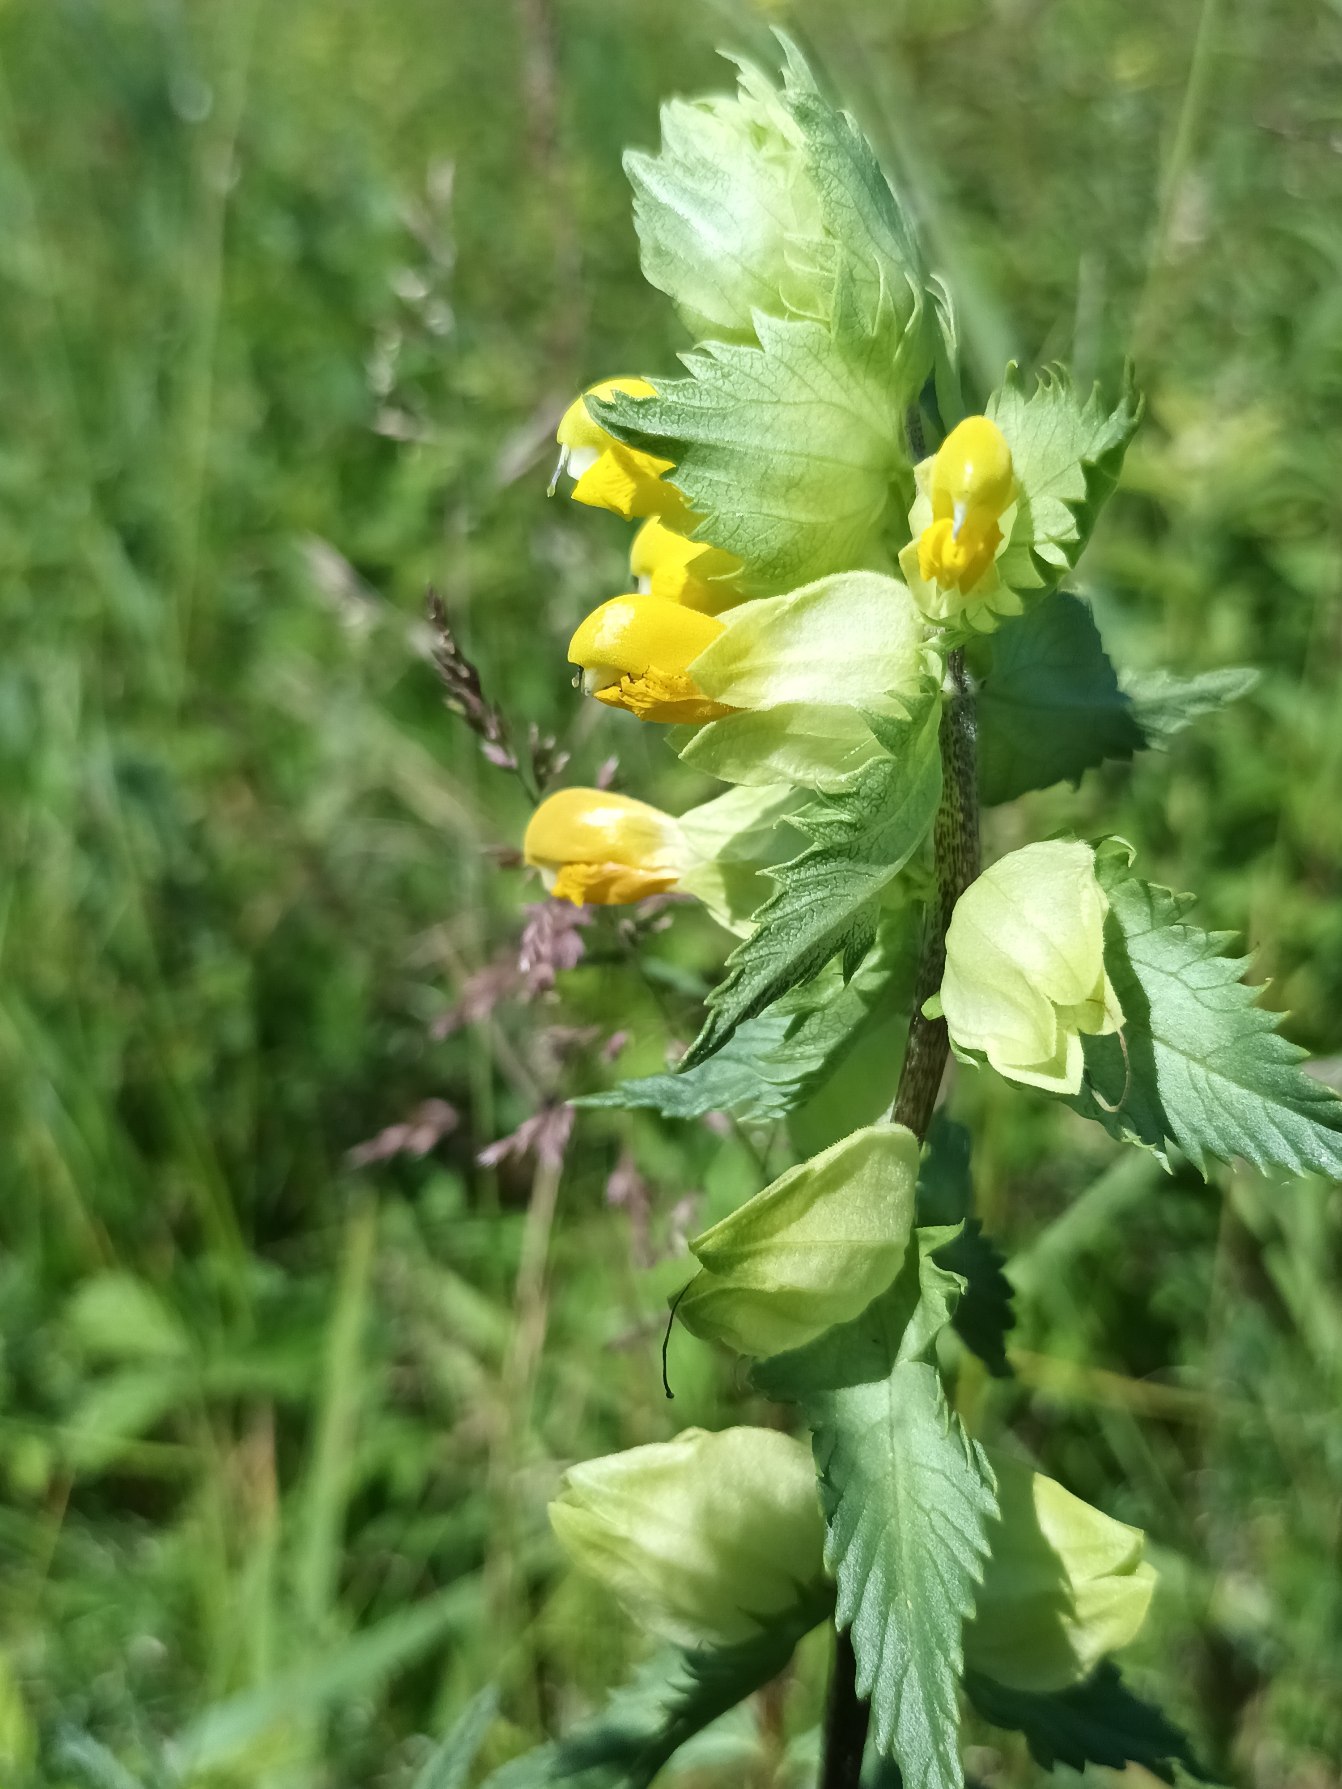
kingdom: Plantae
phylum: Tracheophyta
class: Magnoliopsida
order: Lamiales
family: Orobanchaceae
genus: Rhinanthus
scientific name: Rhinanthus
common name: Stor skjaller
